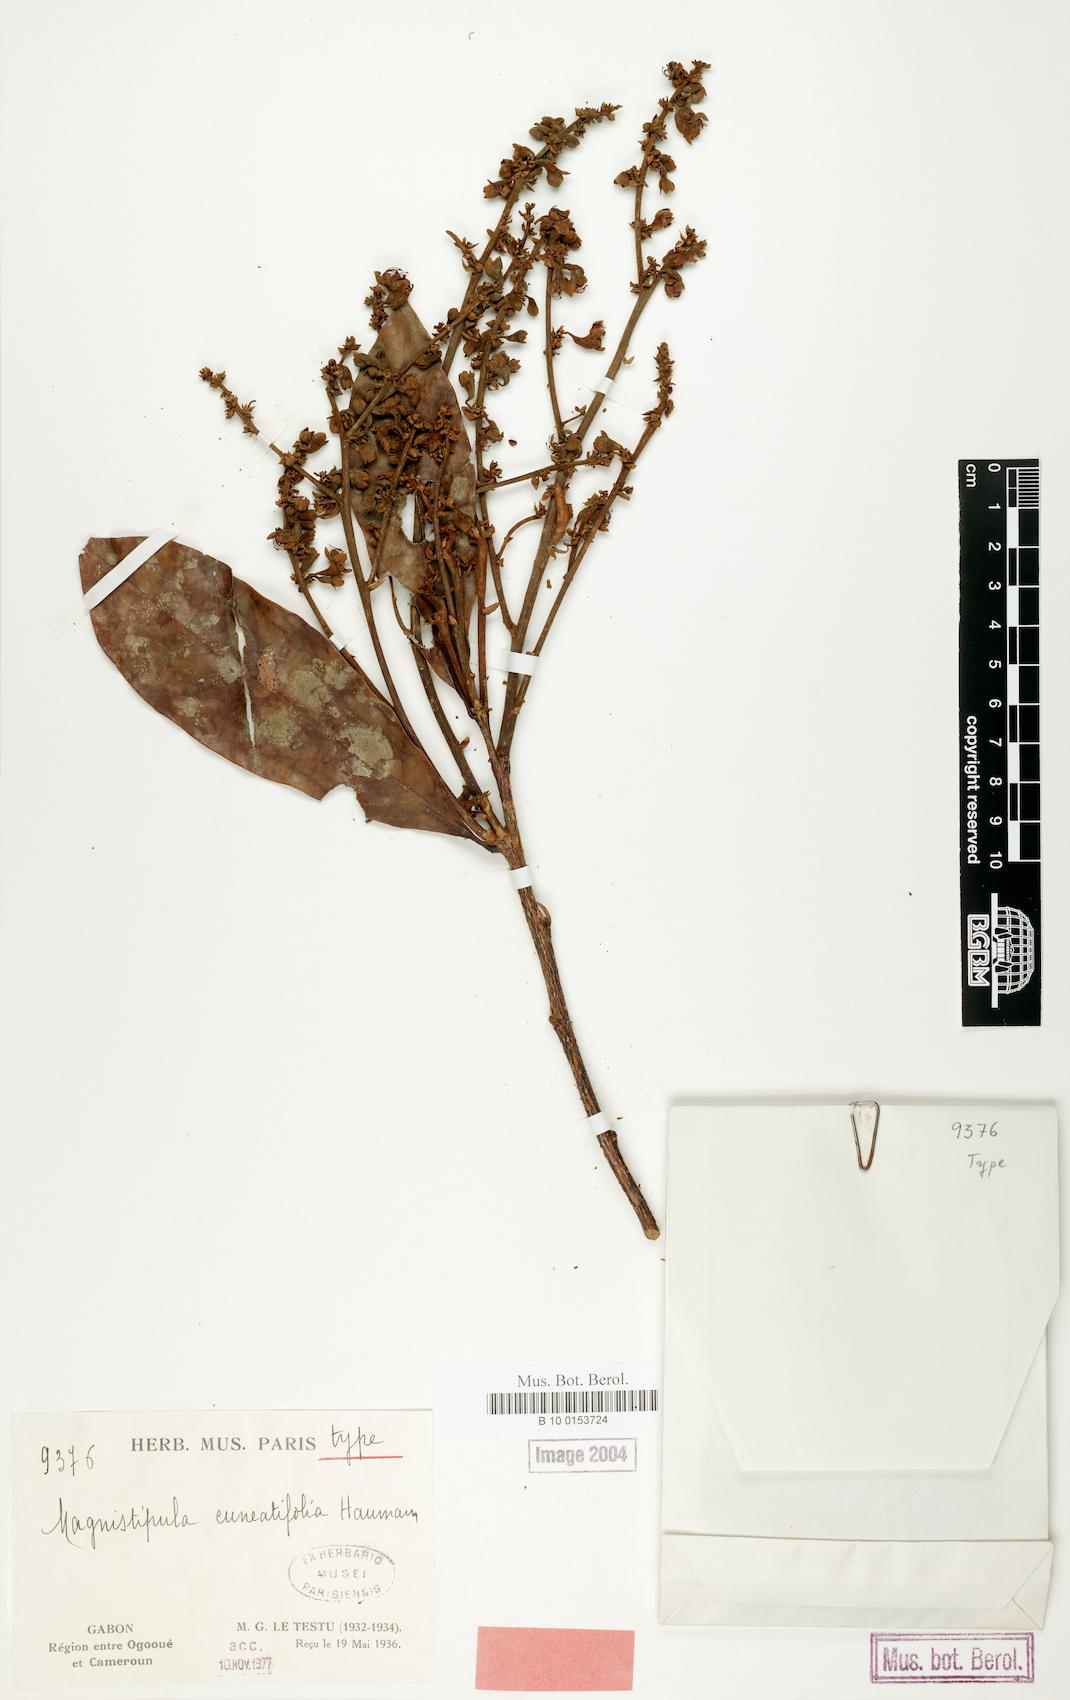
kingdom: Plantae
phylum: Tracheophyta
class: Magnoliopsida
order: Malpighiales
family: Chrysobalanaceae
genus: Magnistipula
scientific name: Magnistipula cuneatifolia
